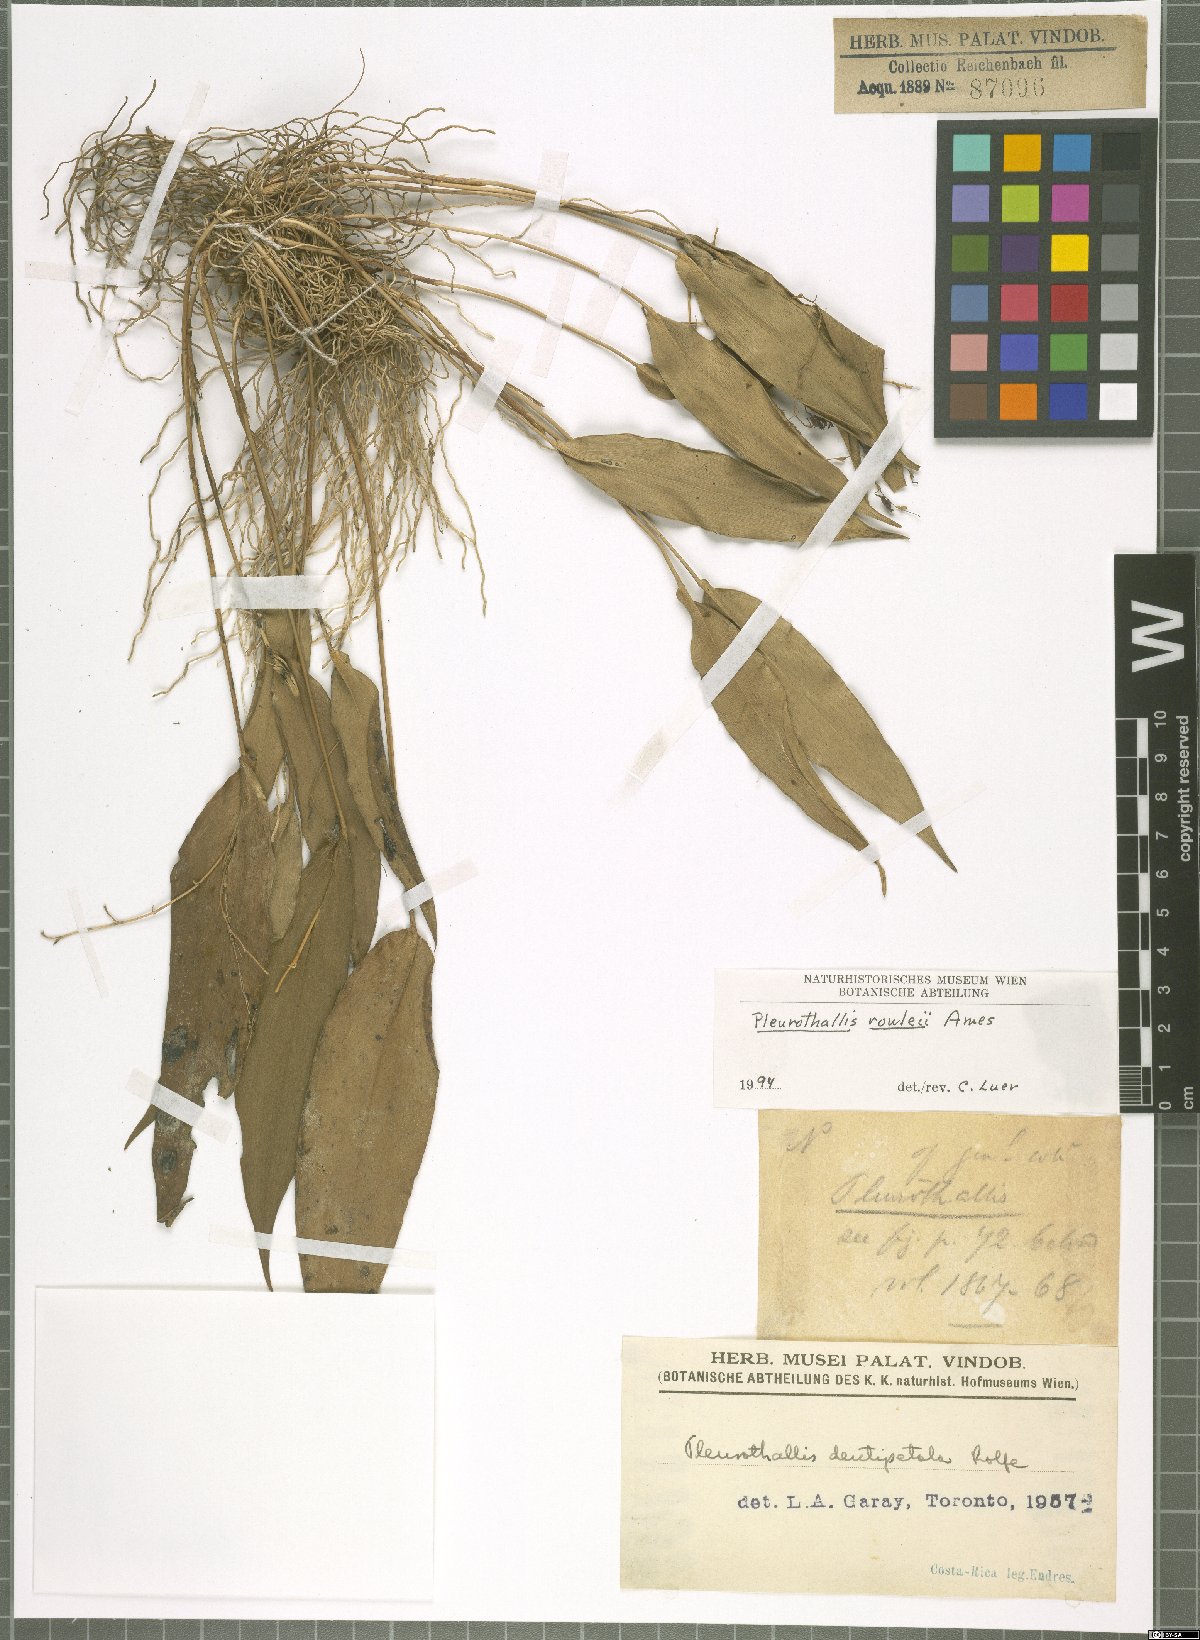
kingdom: Plantae
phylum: Tracheophyta
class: Liliopsida
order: Asparagales
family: Orchidaceae
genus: Pleurothallis
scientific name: Pleurothallis rowleei
